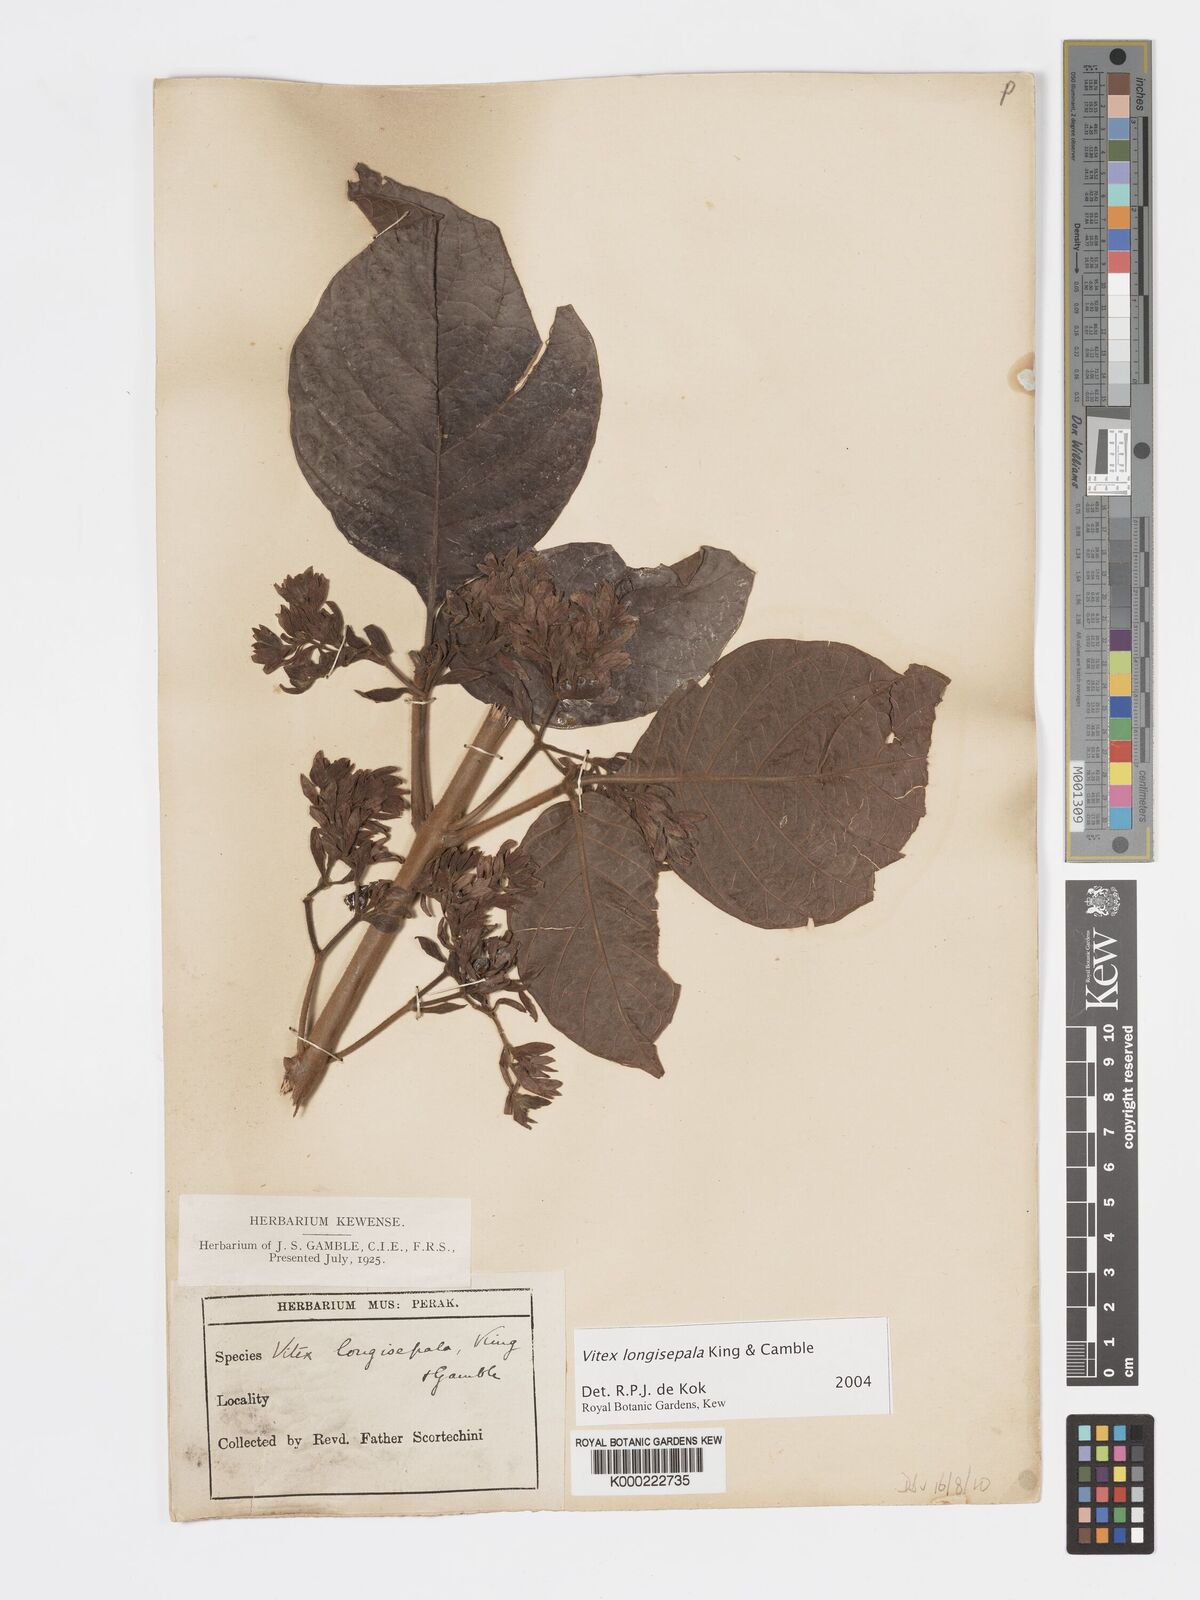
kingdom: Plantae
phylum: Tracheophyta
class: Magnoliopsida
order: Lamiales
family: Lamiaceae
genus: Vitex
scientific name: Vitex longisepala
